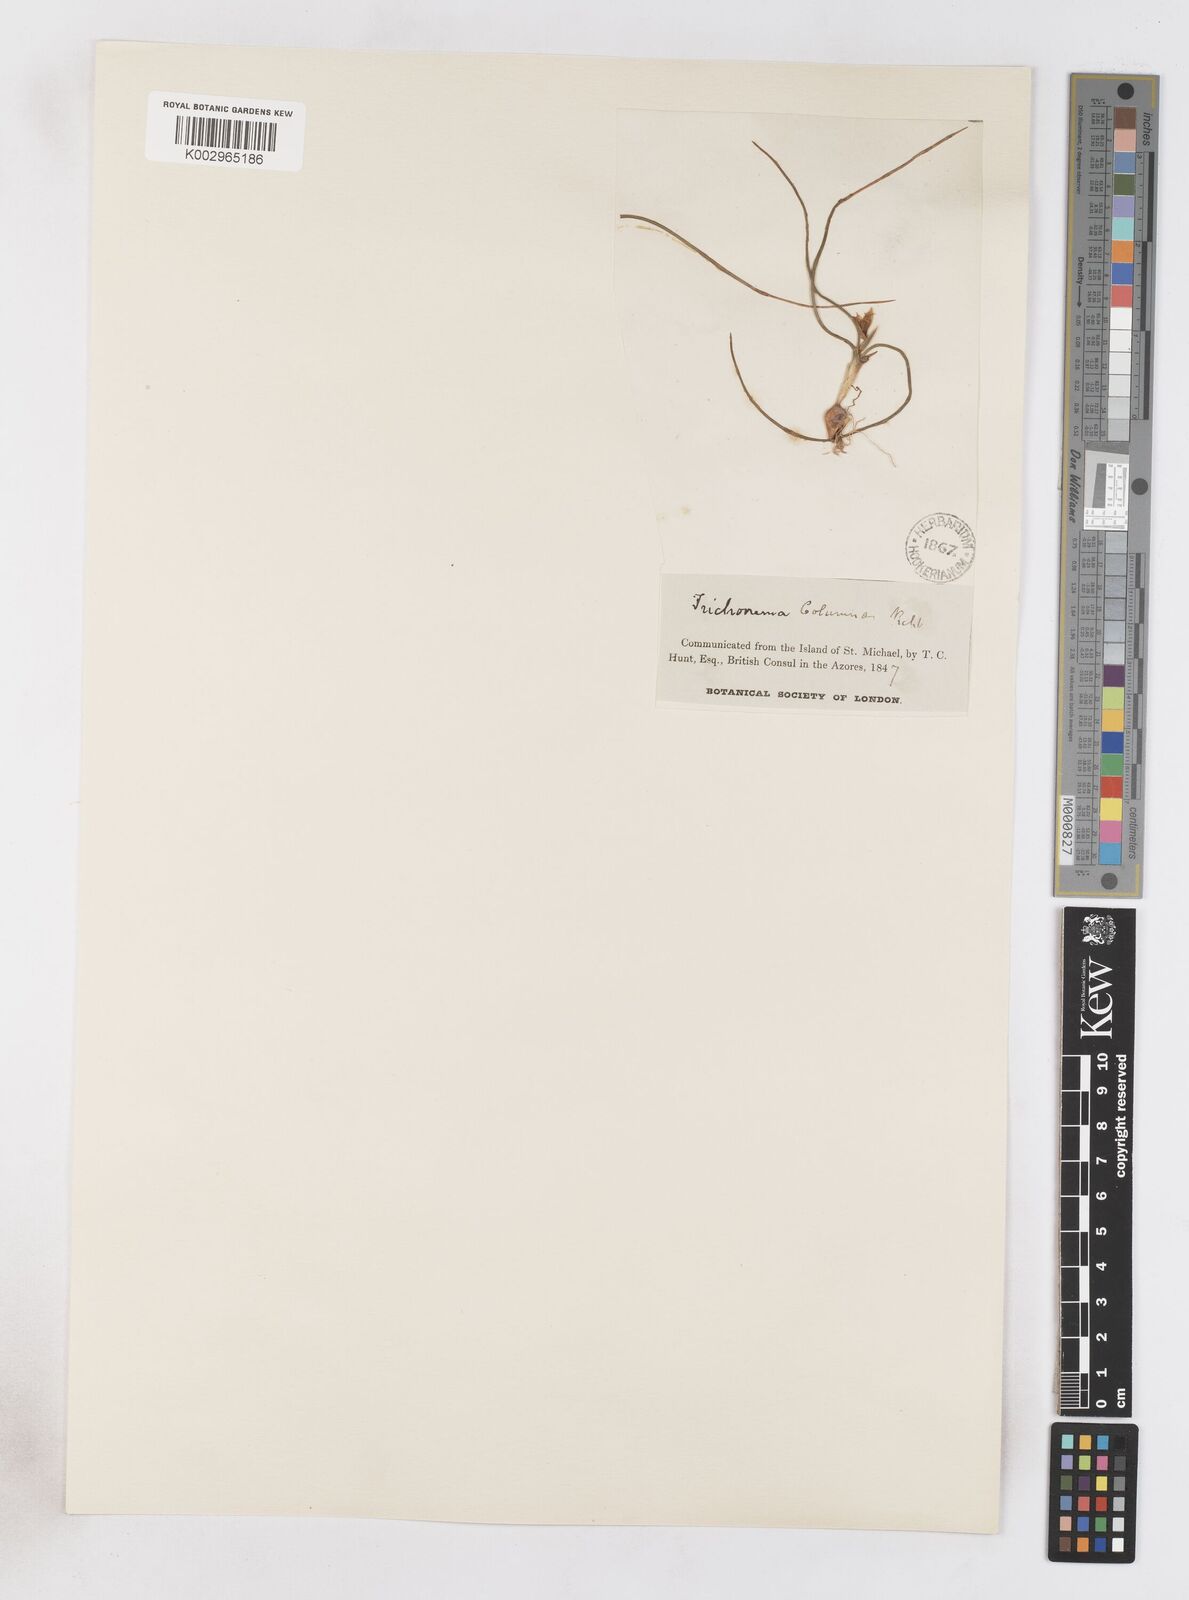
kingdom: Plantae
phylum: Tracheophyta
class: Liliopsida
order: Asparagales
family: Iridaceae
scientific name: Iridaceae
